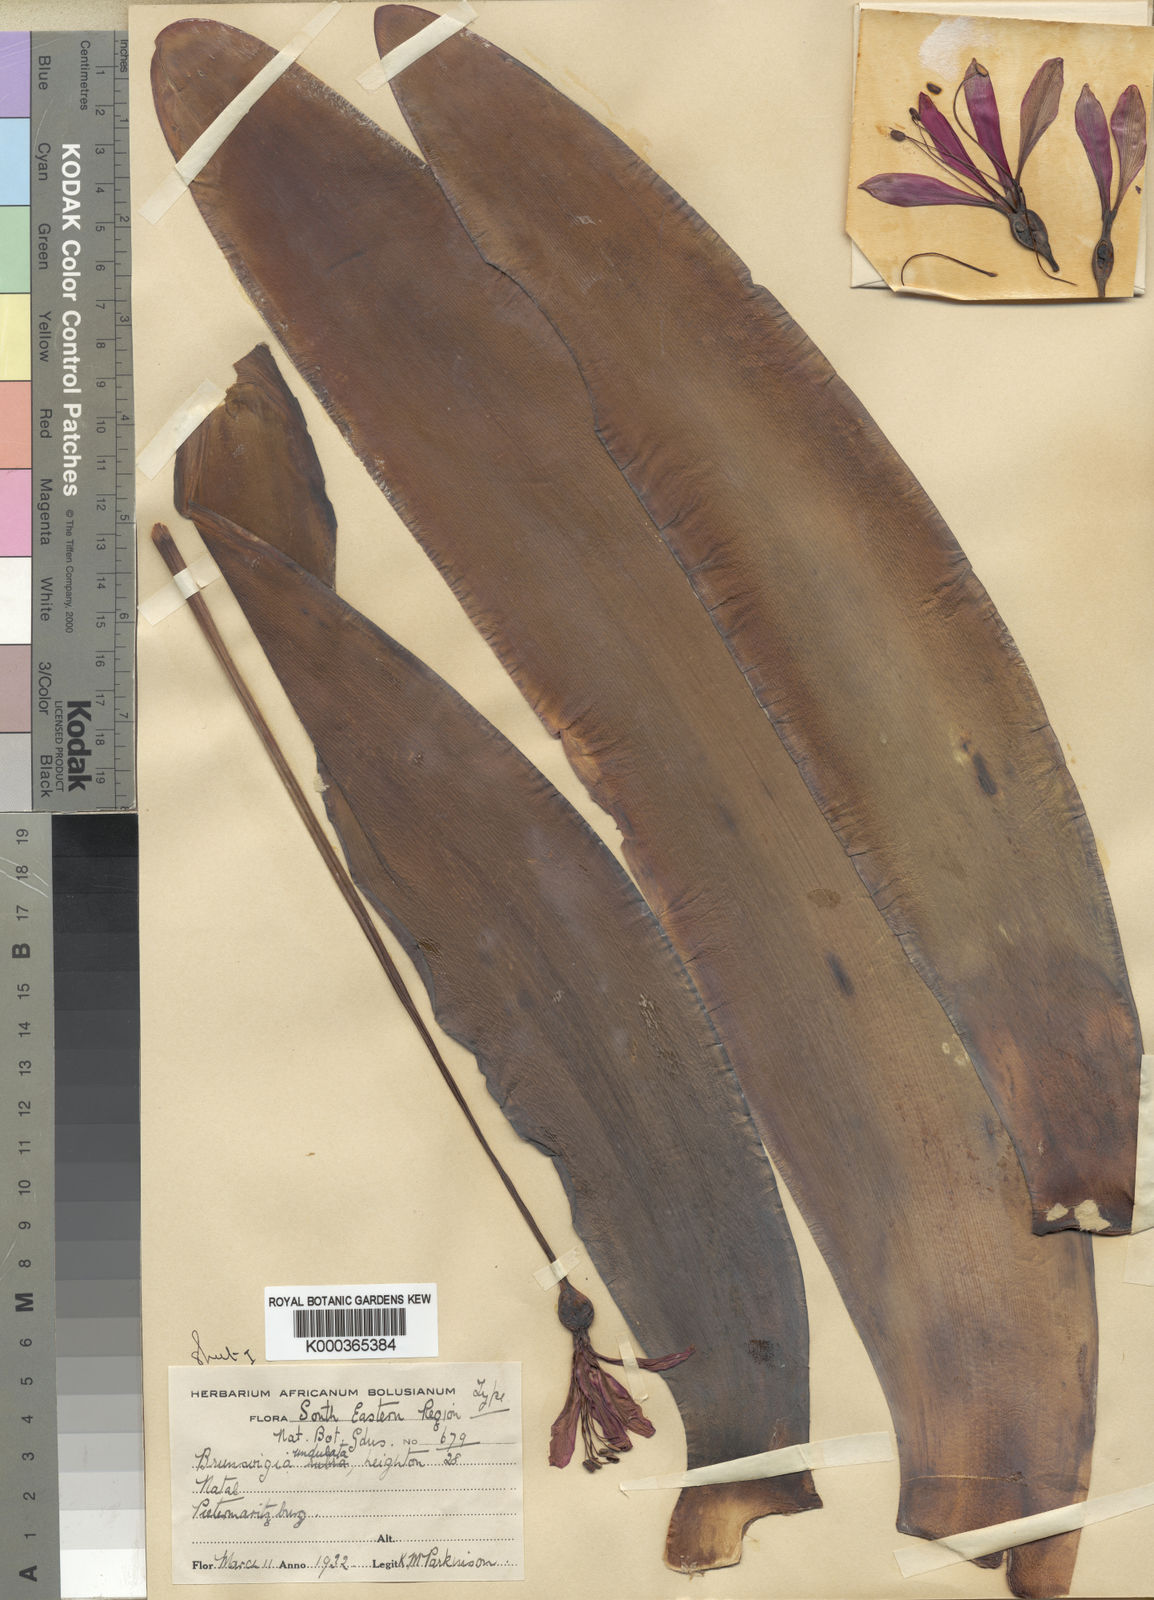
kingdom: Plantae
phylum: Tracheophyta
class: Liliopsida
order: Asparagales
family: Amaryllidaceae
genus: Brunsvigia
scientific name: Brunsvigia undulata
